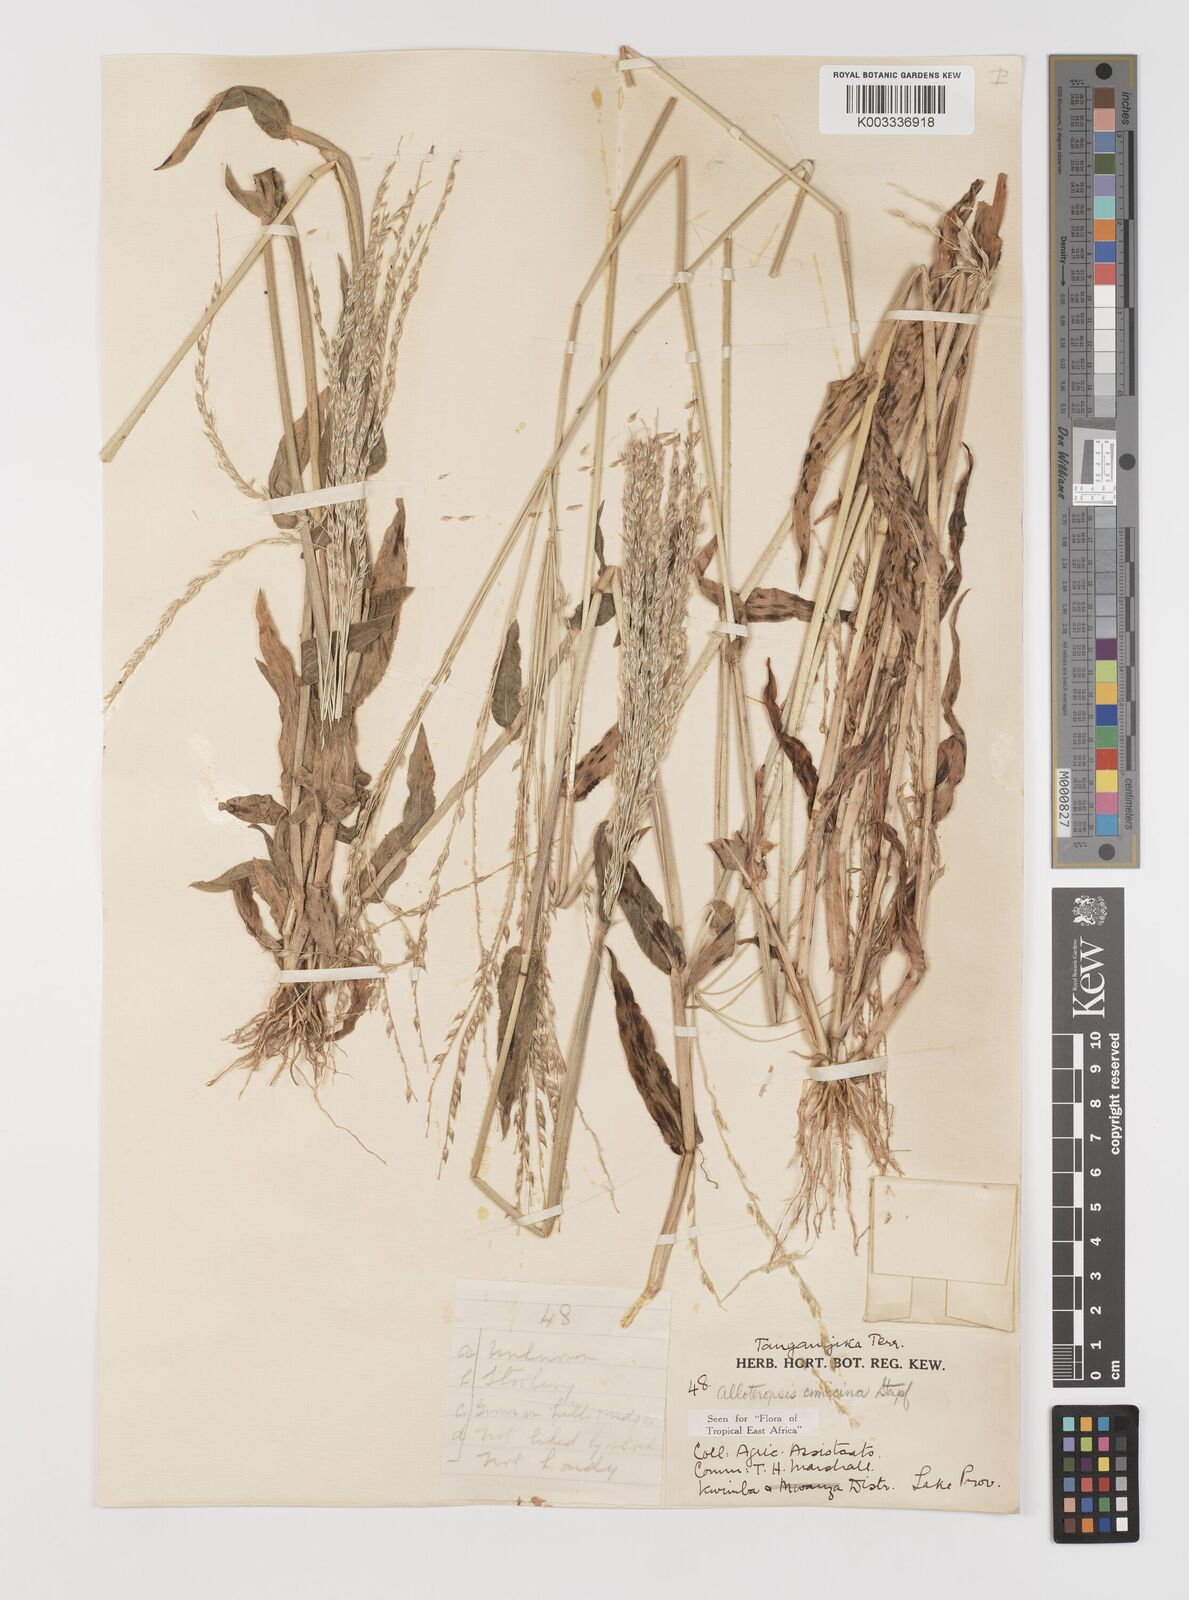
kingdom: Plantae
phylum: Tracheophyta
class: Liliopsida
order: Poales
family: Poaceae
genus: Alloteropsis
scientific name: Alloteropsis cimicina
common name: Summergrass
